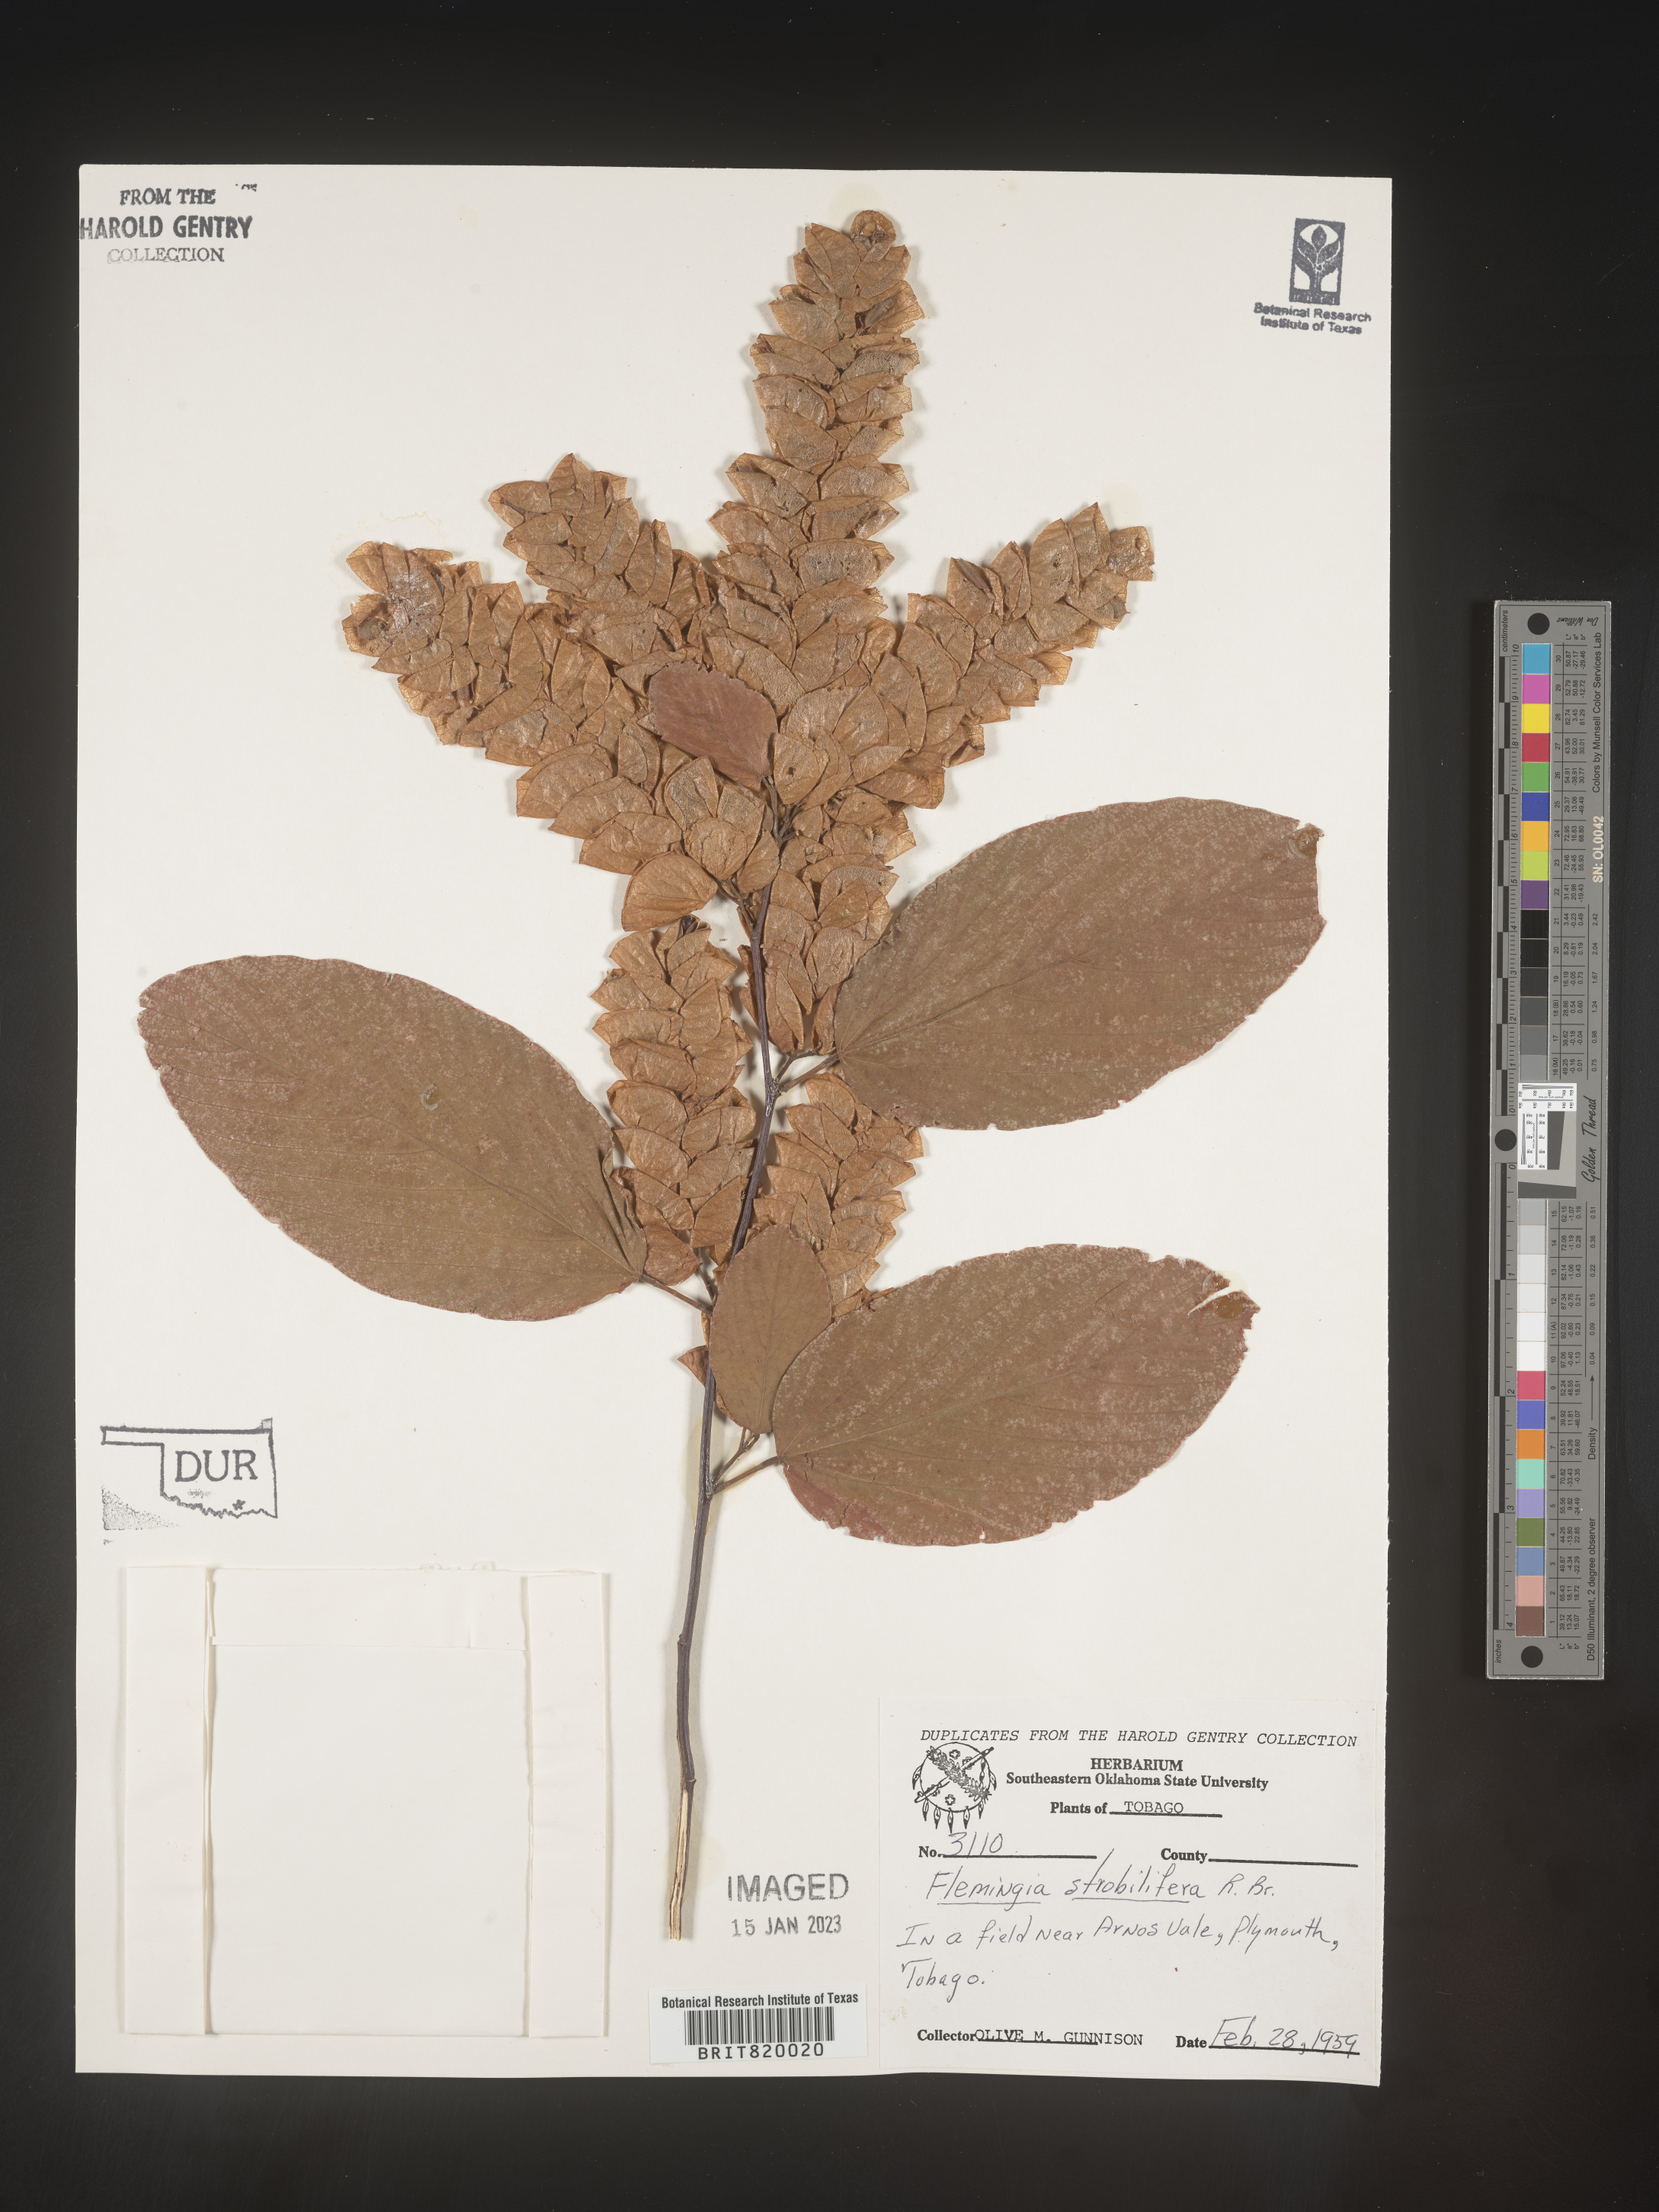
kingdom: Plantae
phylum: Tracheophyta
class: Magnoliopsida
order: Fabales
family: Fabaceae
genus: Flemingia
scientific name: Flemingia
